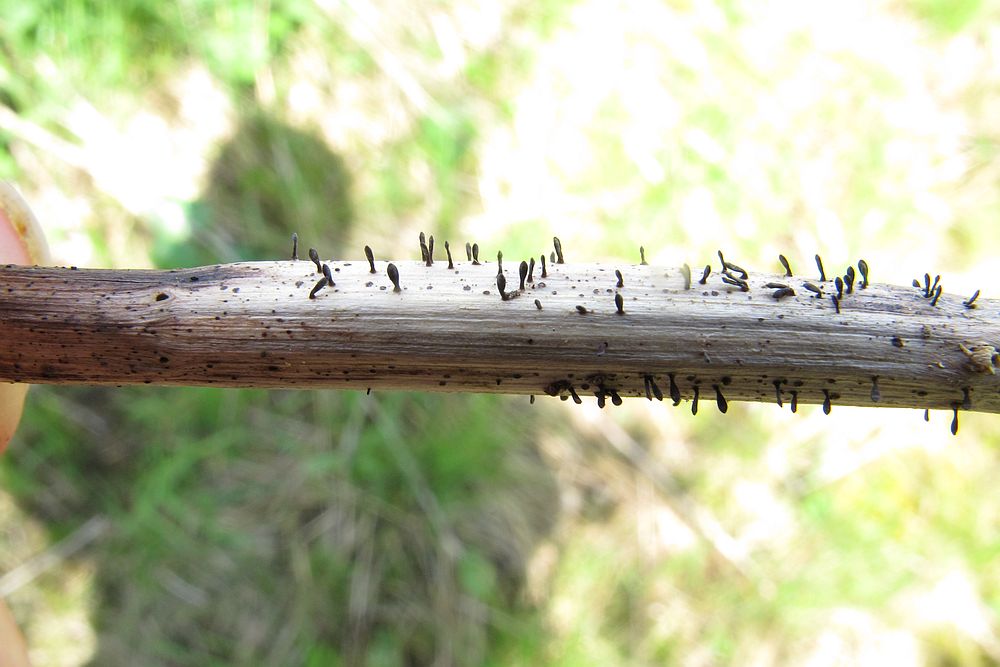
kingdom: Fungi
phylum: Ascomycota
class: Dothideomycetes
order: Acrospermales
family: Acrospermaceae
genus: Acrospermum
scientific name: Acrospermum compressum
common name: nælde-stængeltunge
